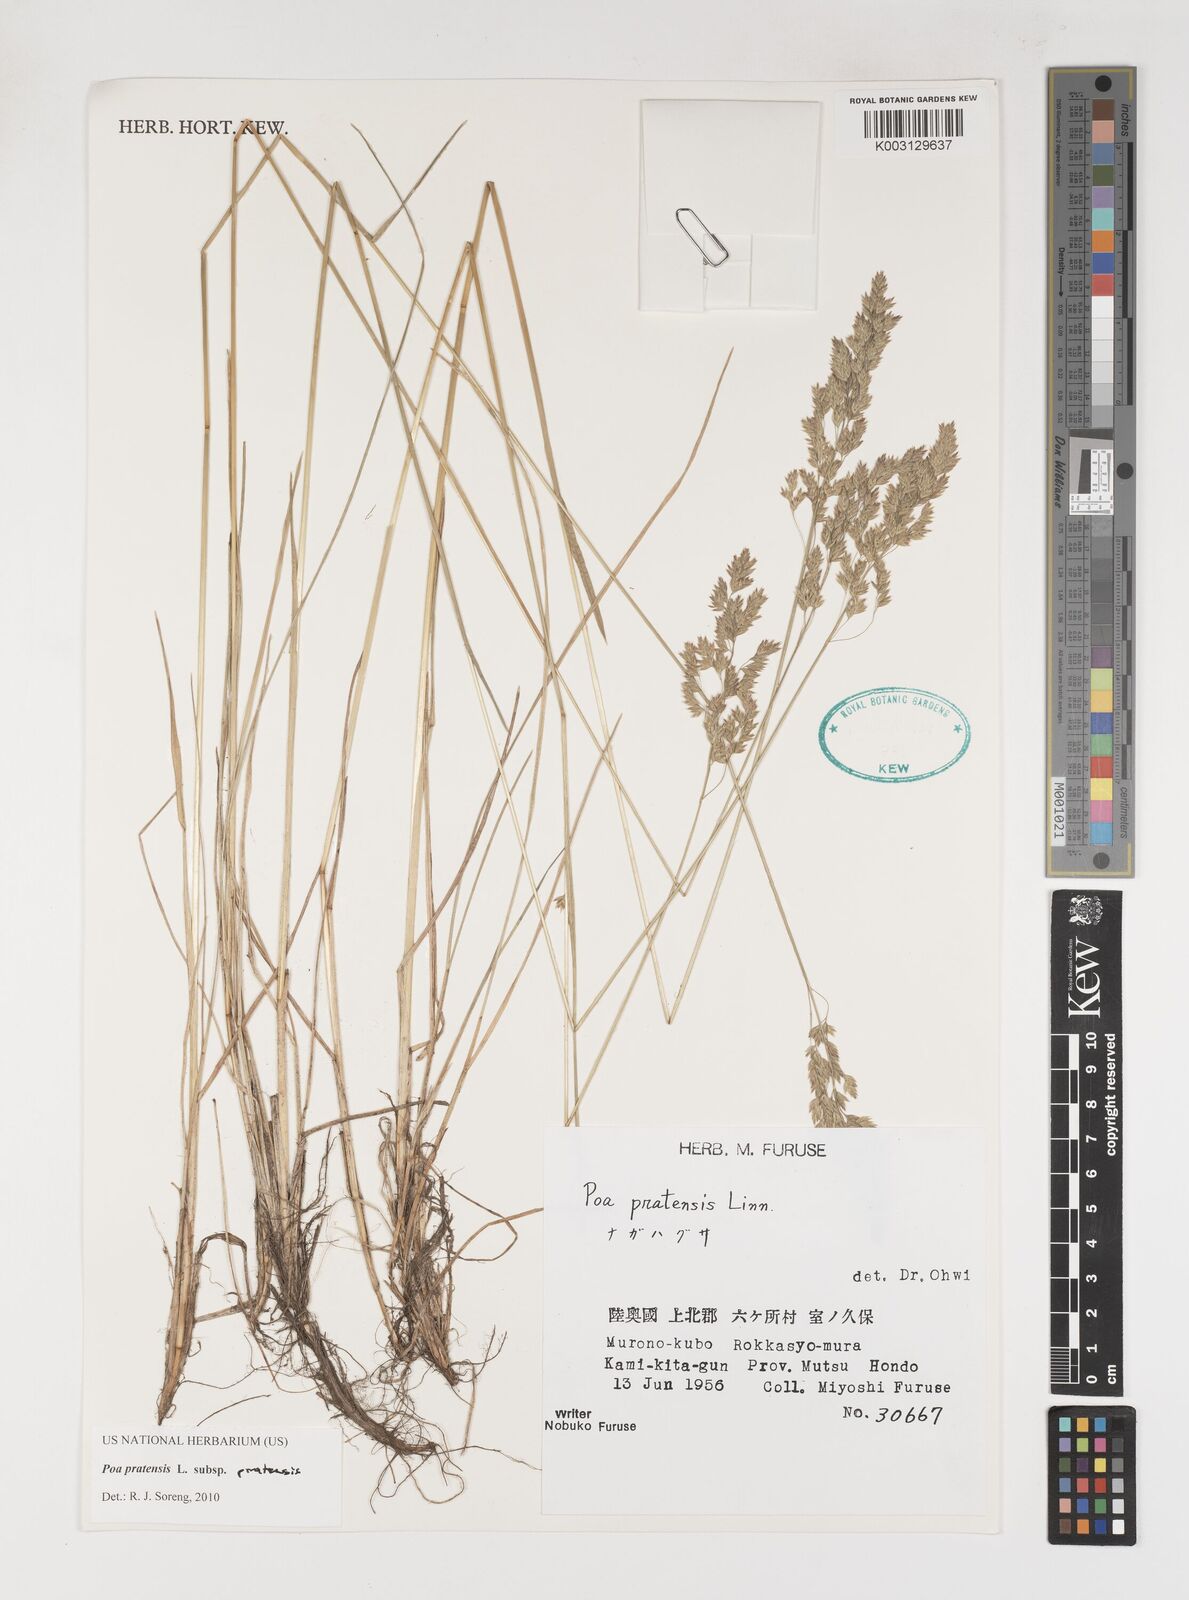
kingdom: Plantae
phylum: Tracheophyta
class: Liliopsida
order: Poales
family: Poaceae
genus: Poa
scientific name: Poa angustifolia
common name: Narrow-leaved meadow-grass
